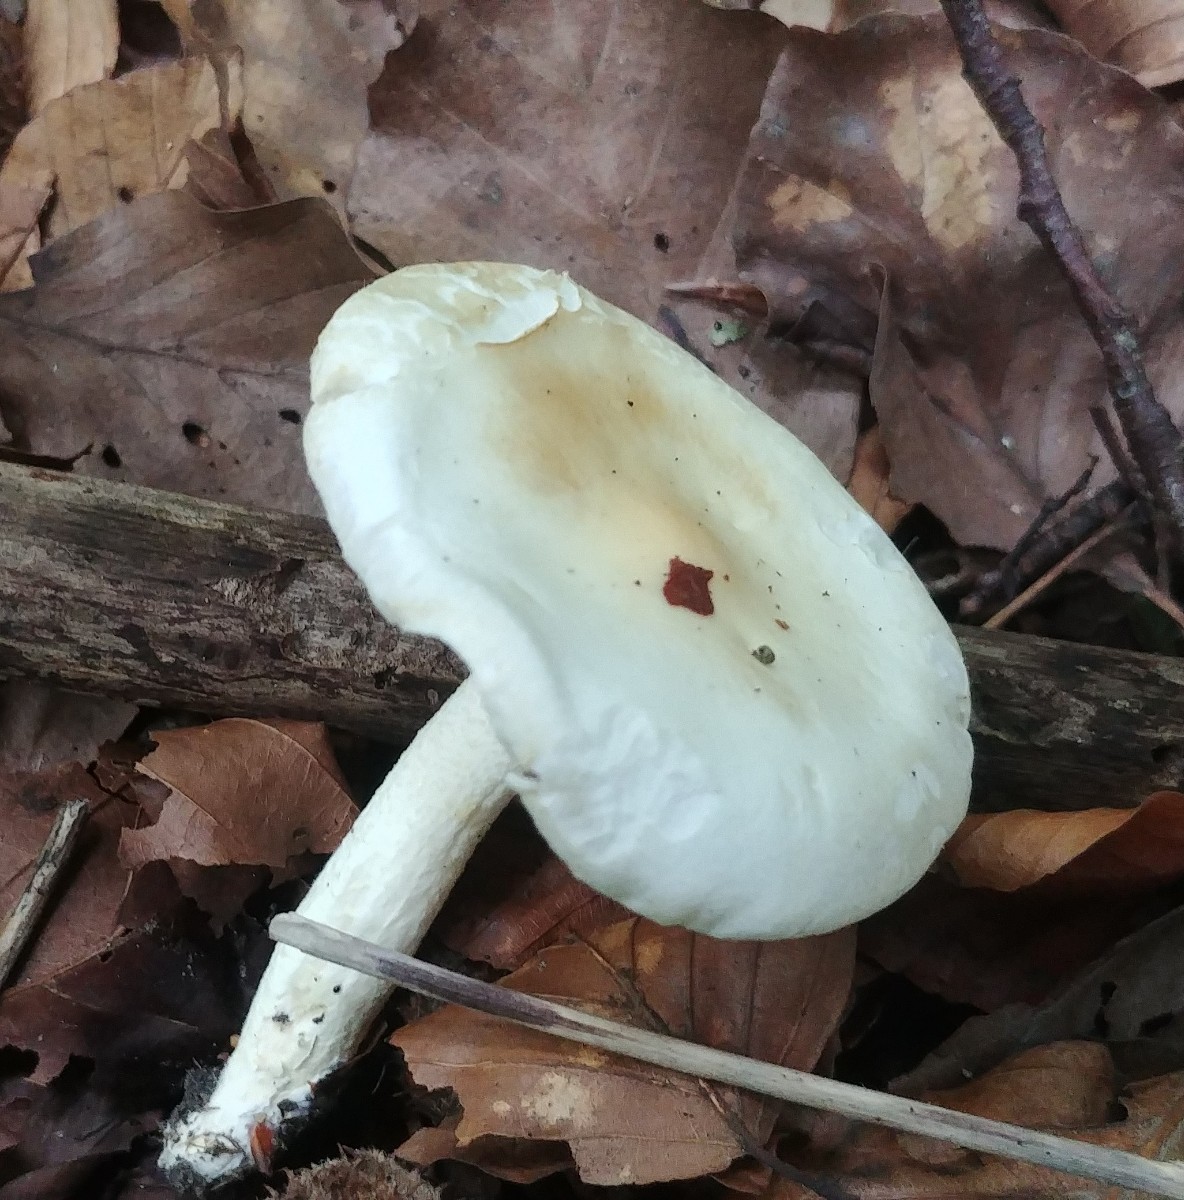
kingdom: Fungi
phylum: Basidiomycota
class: Agaricomycetes
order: Agaricales
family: Hygrophoraceae
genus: Hygrophorus
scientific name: Hygrophorus
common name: sneglehat
